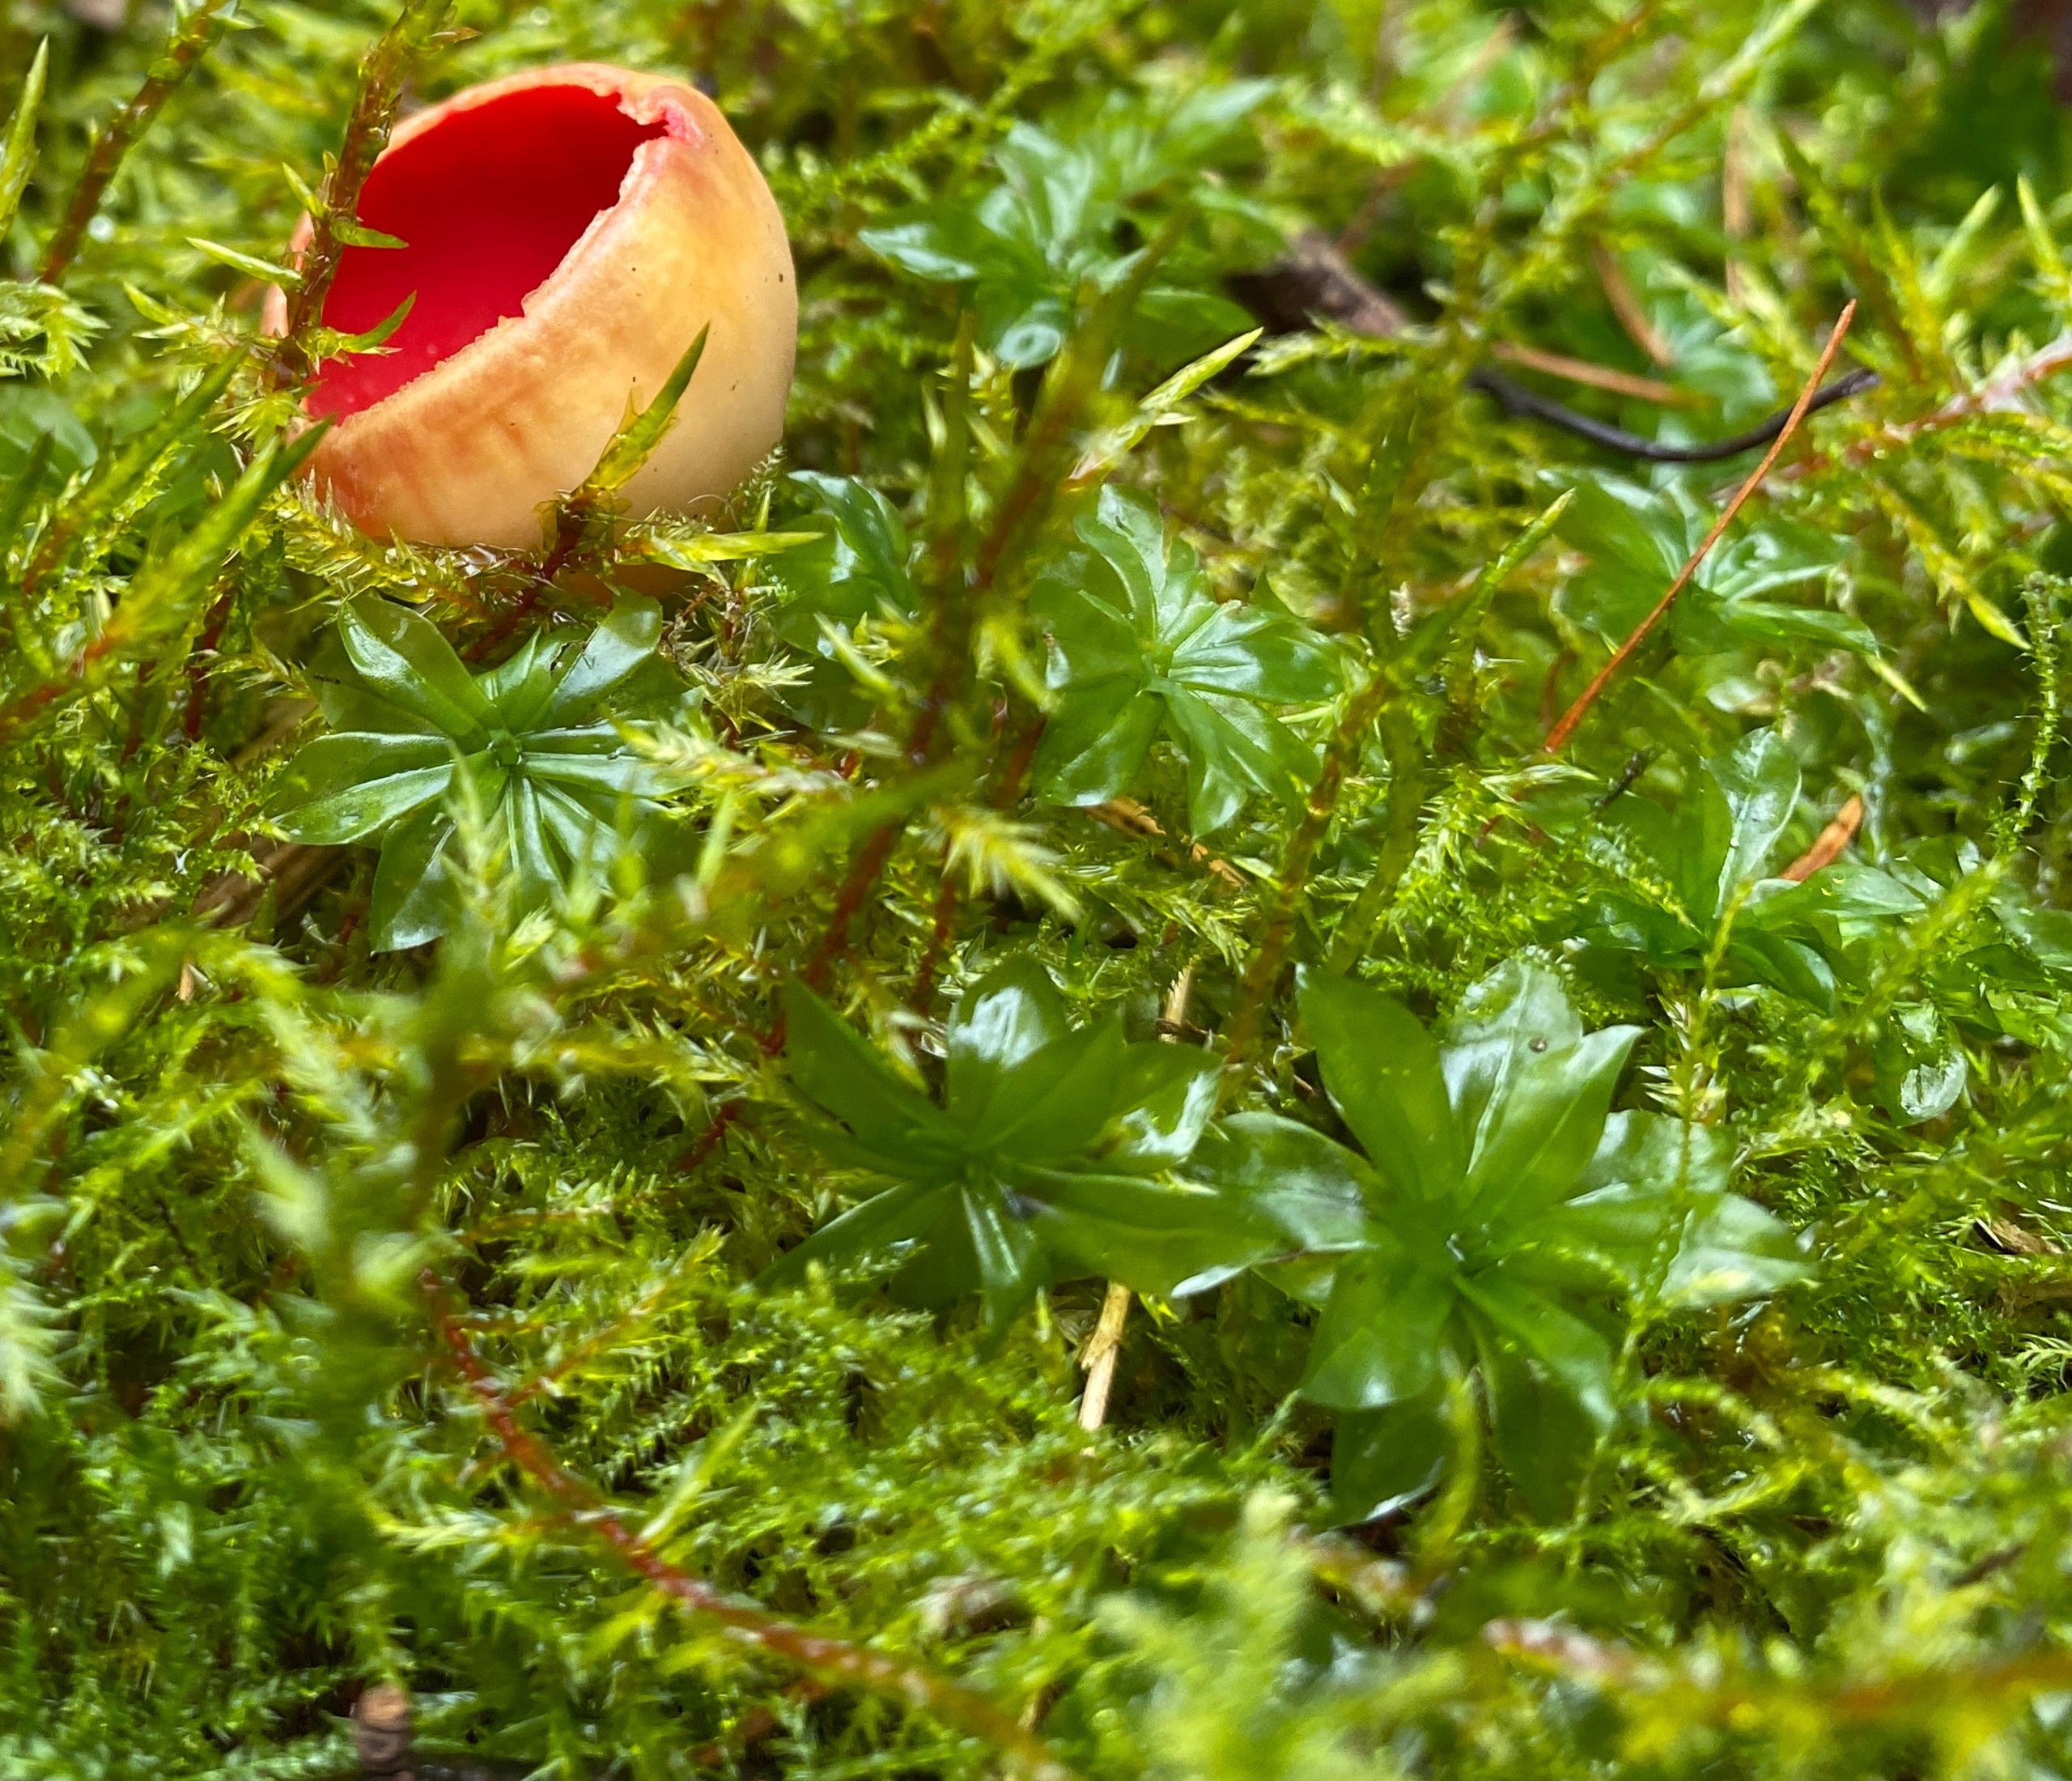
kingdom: Plantae
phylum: Bryophyta
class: Bryopsida
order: Bryales
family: Bryaceae
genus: Rhodobryum
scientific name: Rhodobryum roseum
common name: Stor rosetmos
